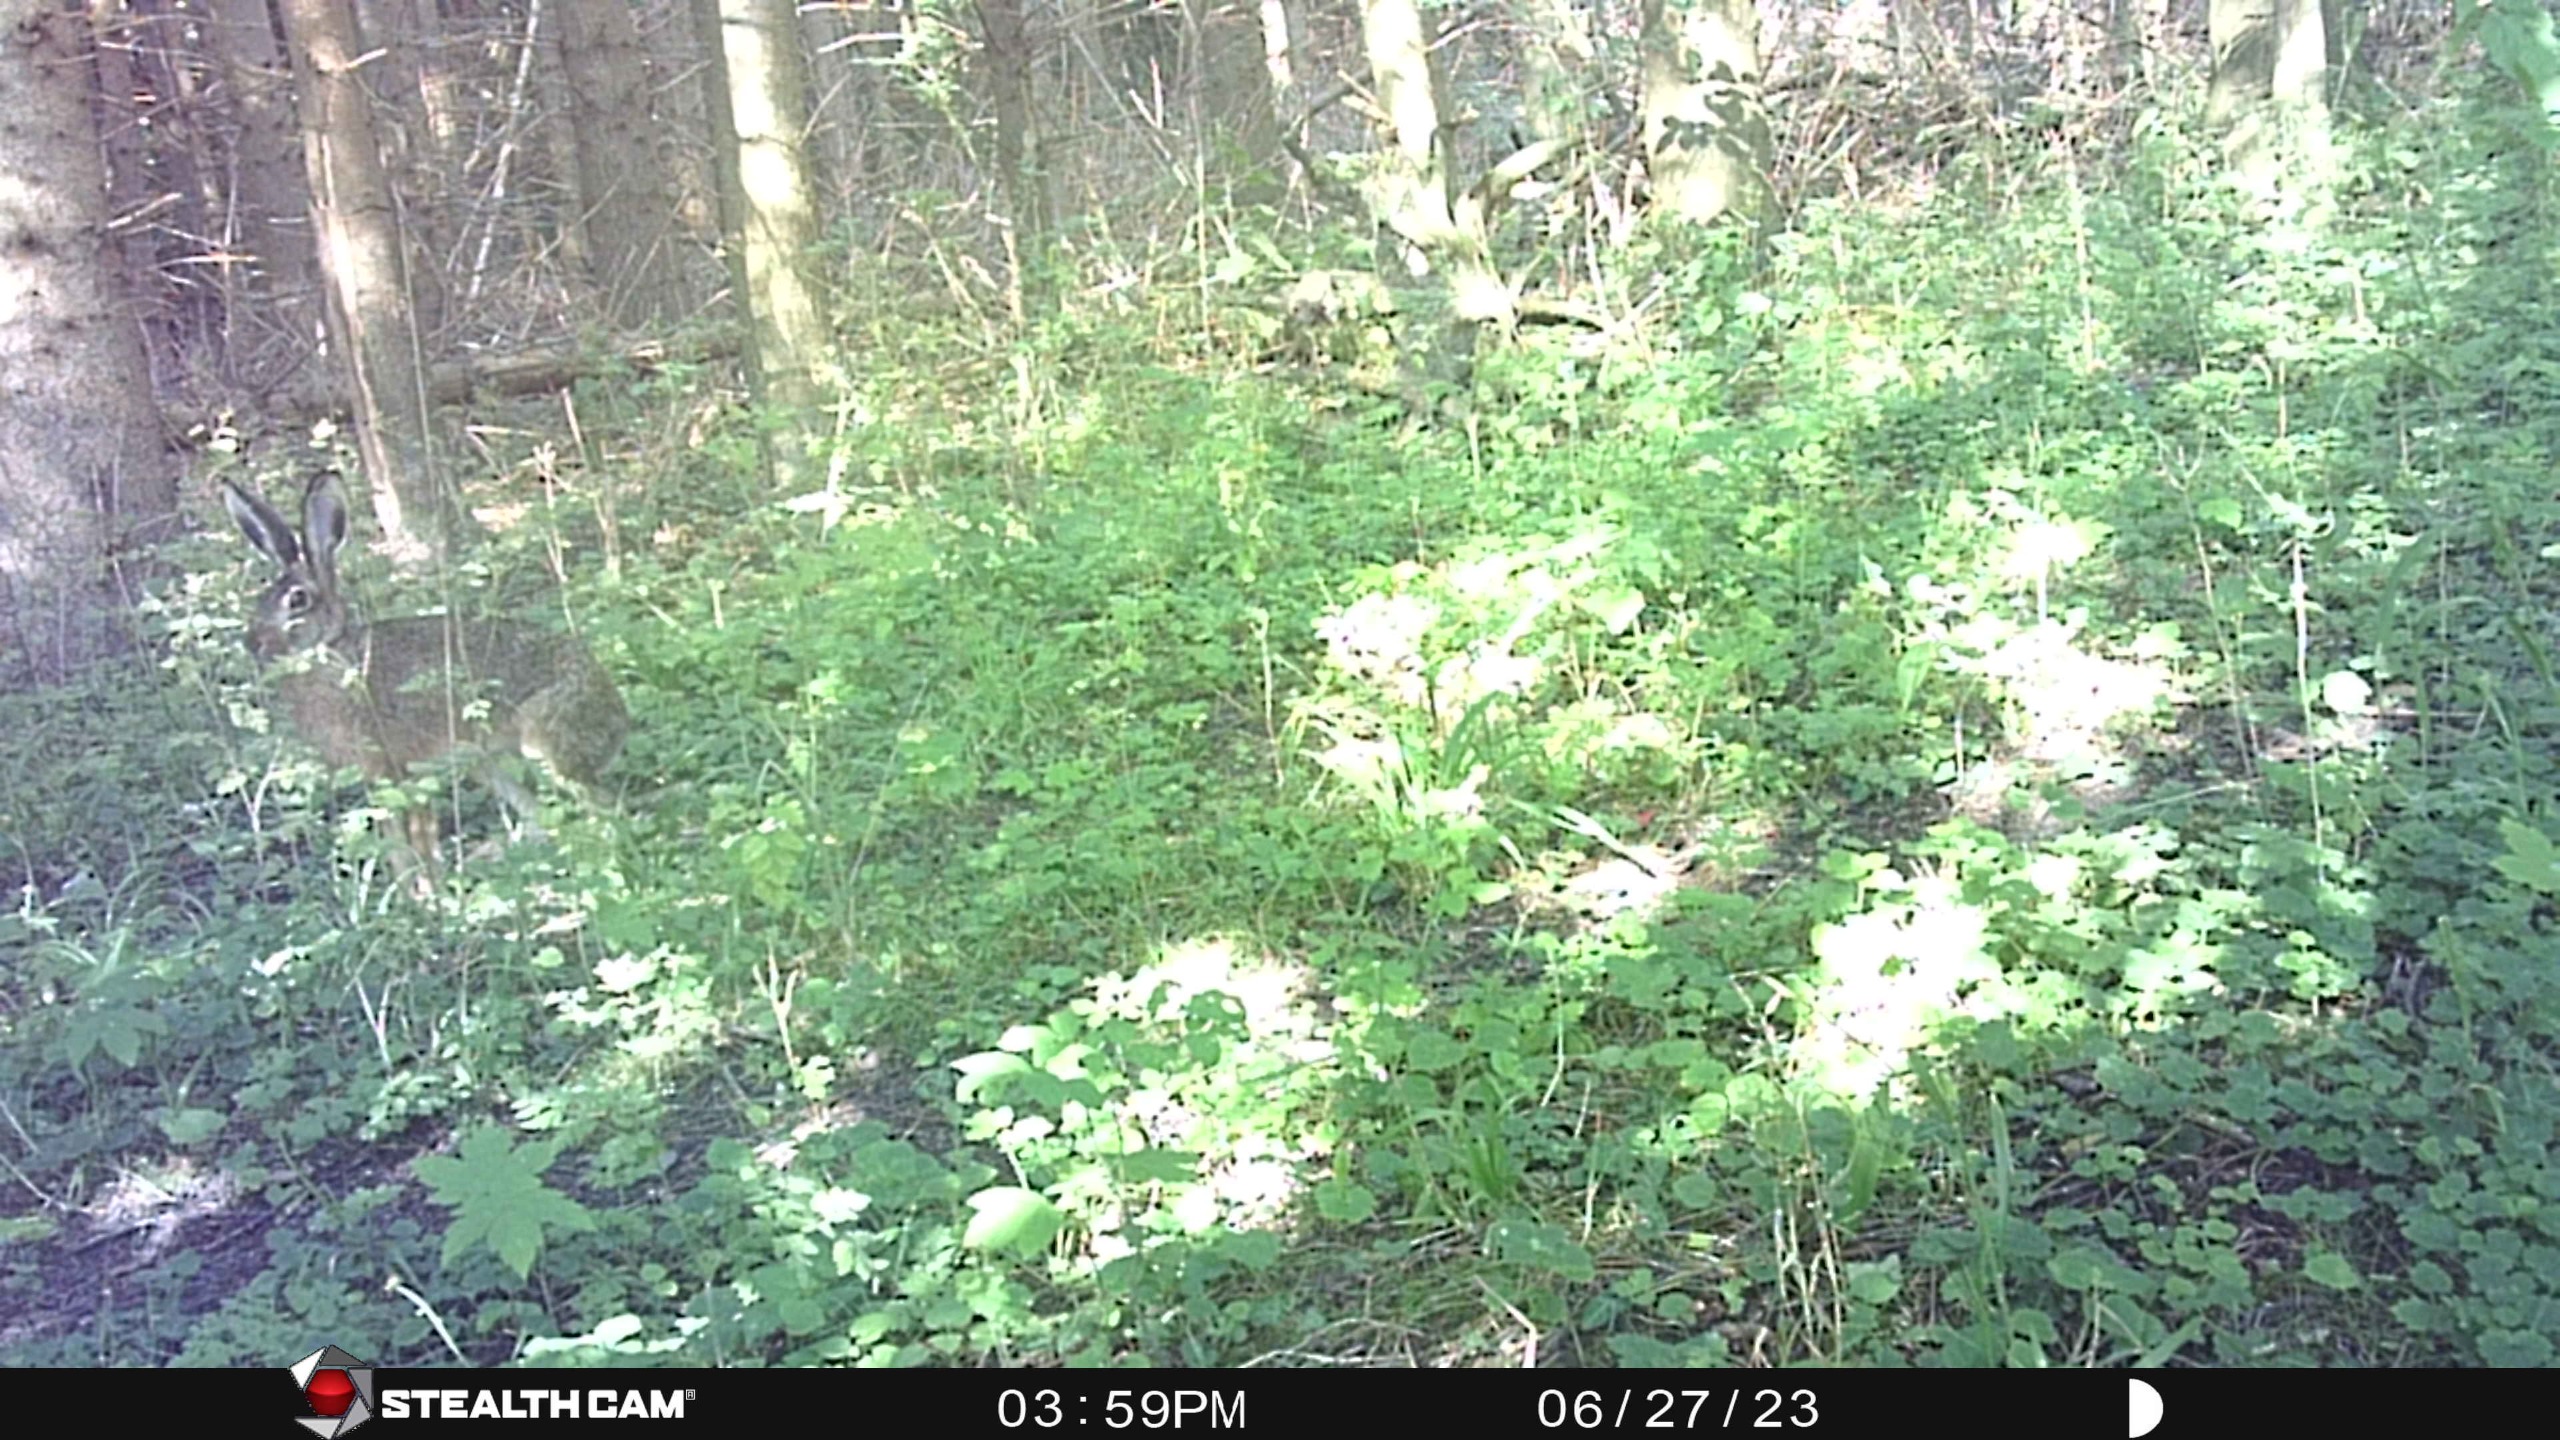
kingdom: Animalia
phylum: Chordata
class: Mammalia
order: Lagomorpha
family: Leporidae
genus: Lepus
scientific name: Lepus europaeus
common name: Hare
